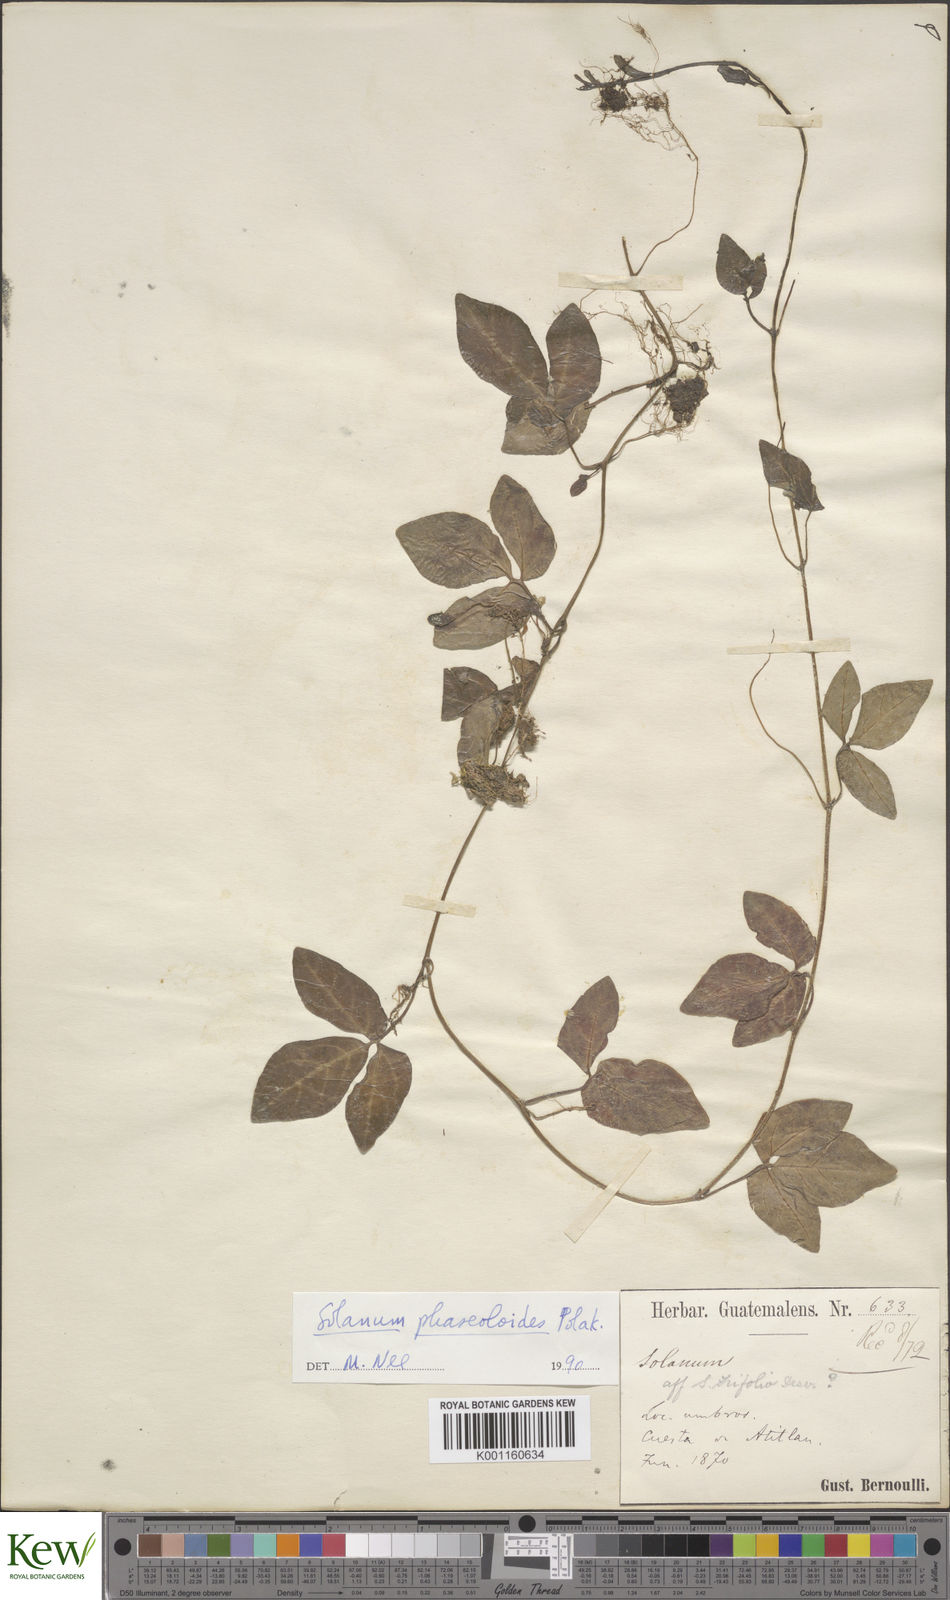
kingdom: Plantae
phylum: Tracheophyta
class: Magnoliopsida
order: Solanales
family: Solanaceae
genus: Solanum
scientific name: Solanum phaseoloides
